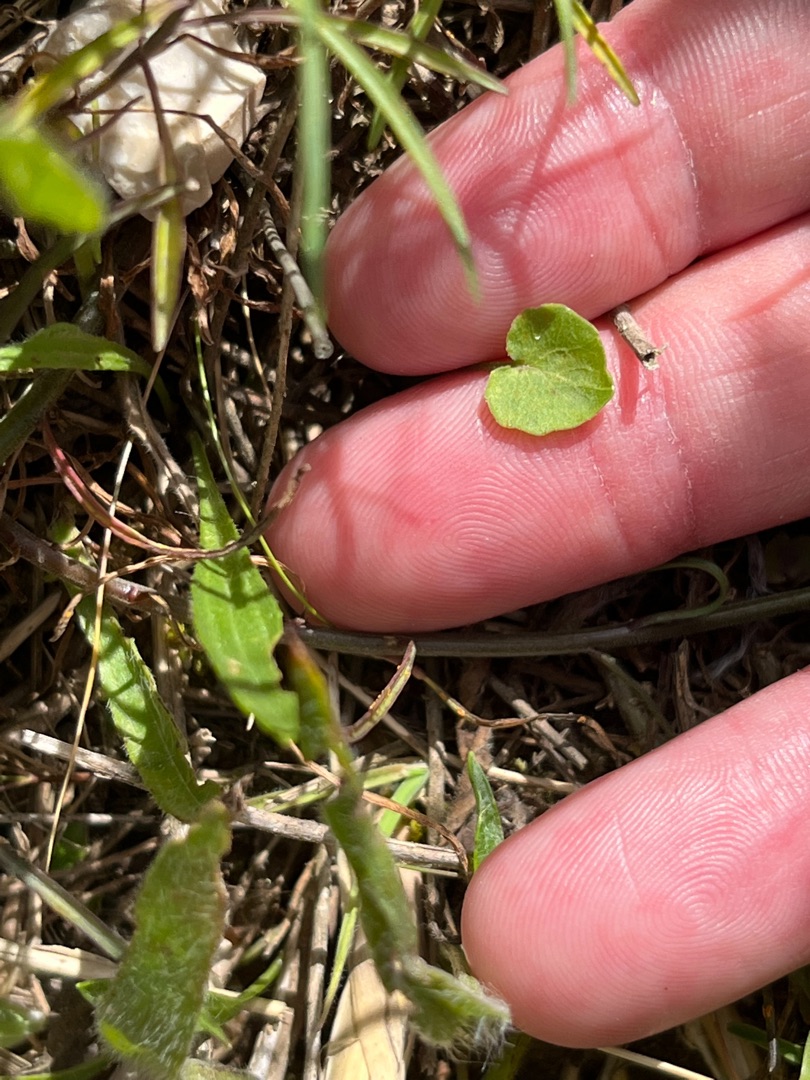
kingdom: Plantae
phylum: Tracheophyta
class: Magnoliopsida
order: Asterales
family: Campanulaceae
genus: Campanula
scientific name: Campanula rotundifolia
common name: Liden klokke
